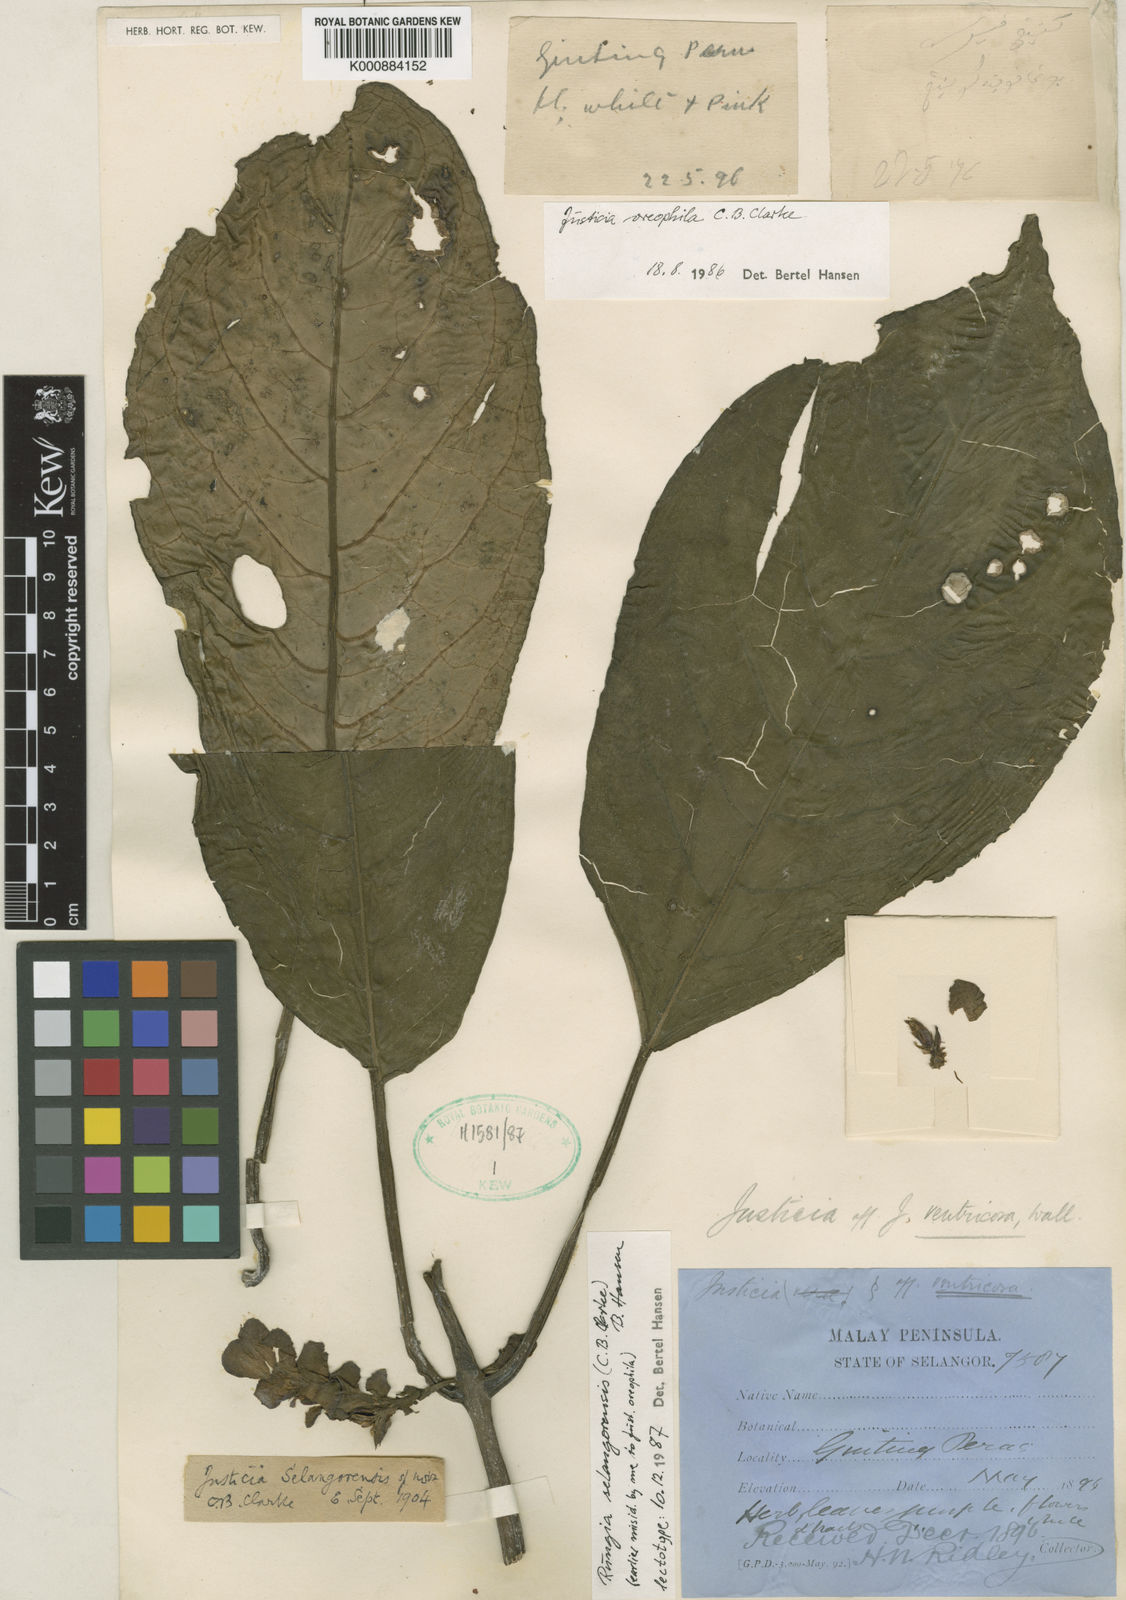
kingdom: Plantae
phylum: Tracheophyta
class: Magnoliopsida
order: Lamiales
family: Acanthaceae
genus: Rungia
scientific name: Rungia selangorensis
